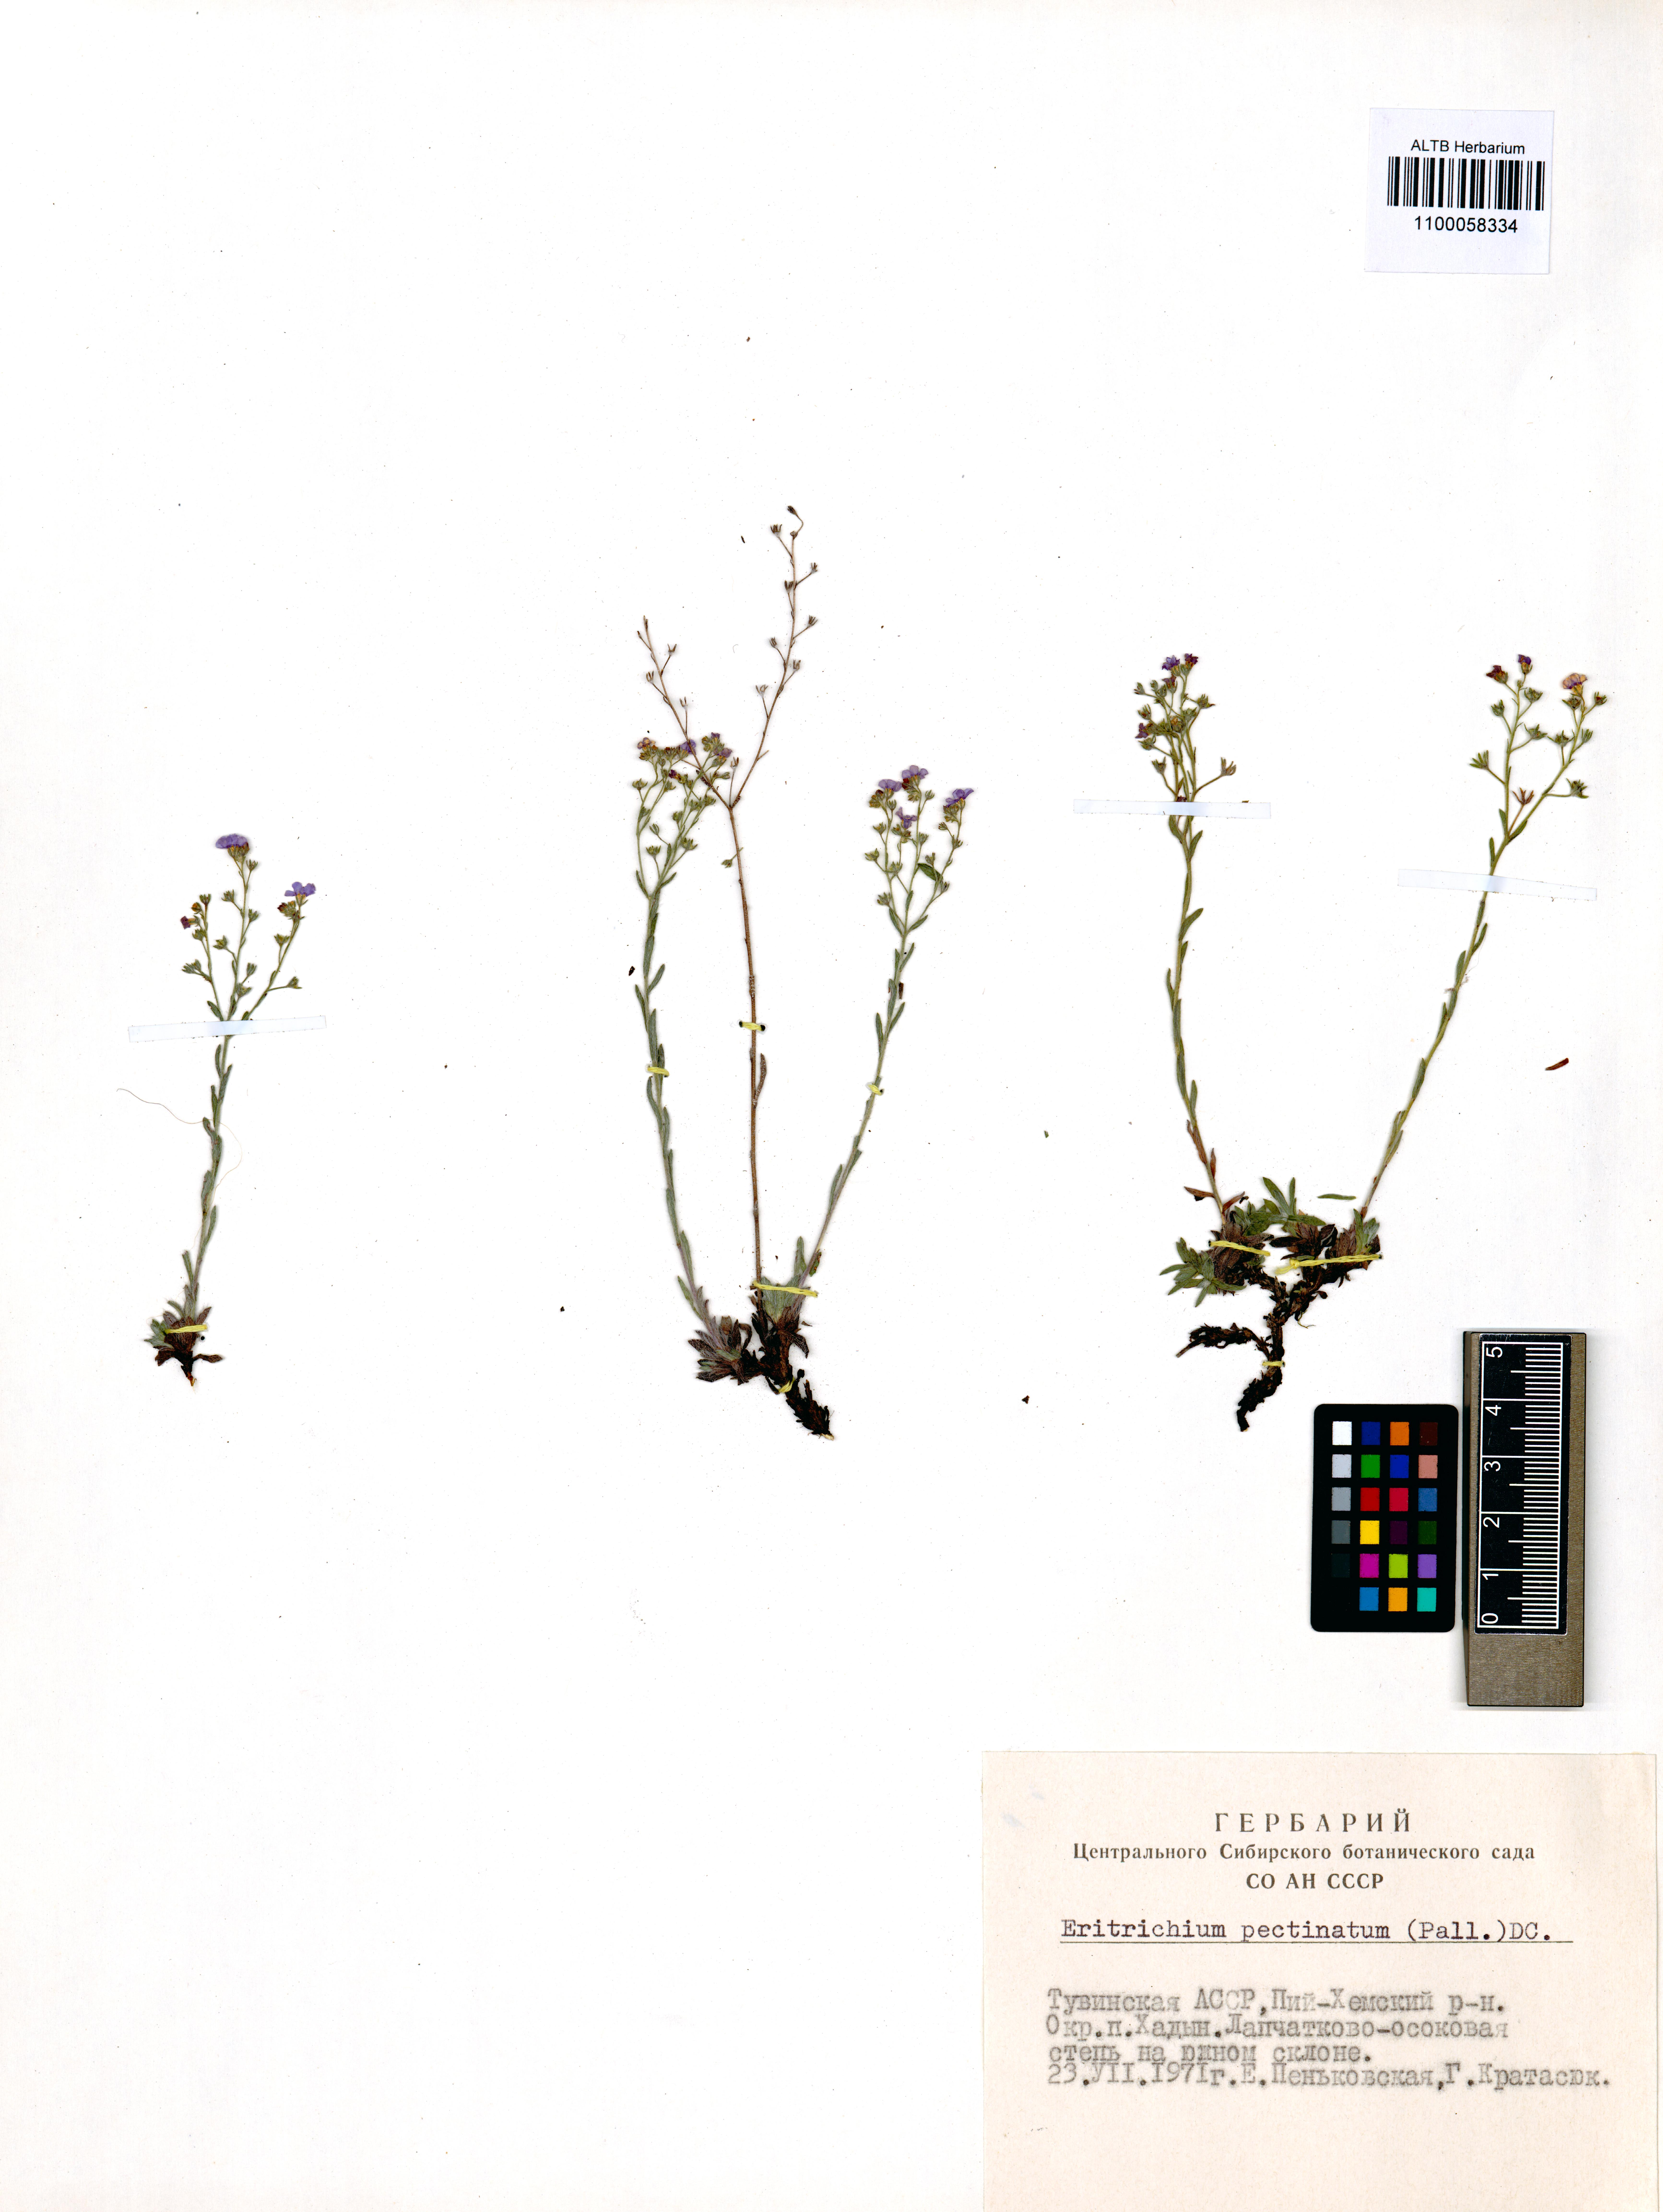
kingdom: Plantae
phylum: Tracheophyta
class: Magnoliopsida
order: Boraginales
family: Boraginaceae
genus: Eritrichium
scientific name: Eritrichium pectinatum
